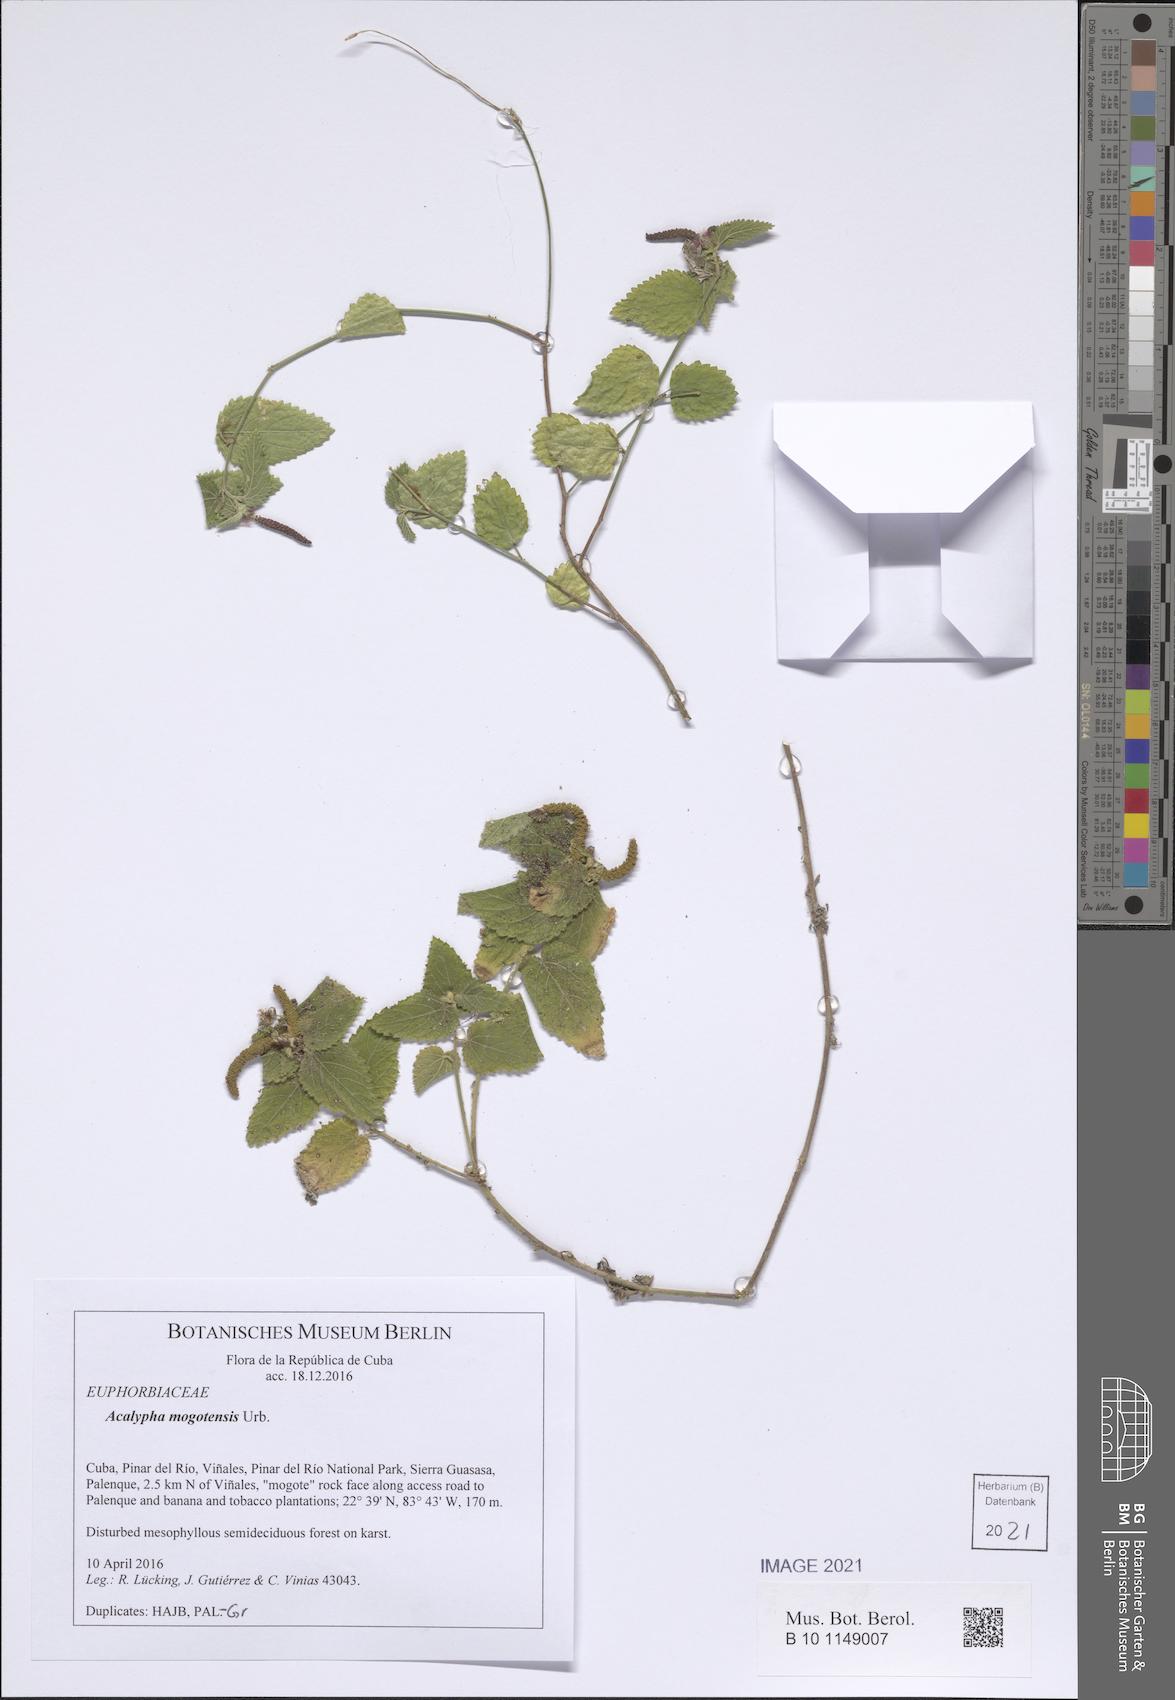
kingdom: Plantae
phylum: Tracheophyta
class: Magnoliopsida
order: Malpighiales
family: Euphorbiaceae
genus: Acalypha
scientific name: Acalypha mogotensis
